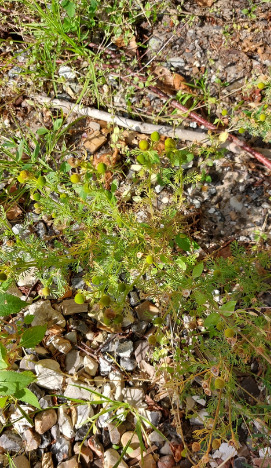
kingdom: Plantae
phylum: Tracheophyta
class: Magnoliopsida
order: Asterales
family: Asteraceae
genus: Matricaria
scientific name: Matricaria discoidea
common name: Skive-kamille
